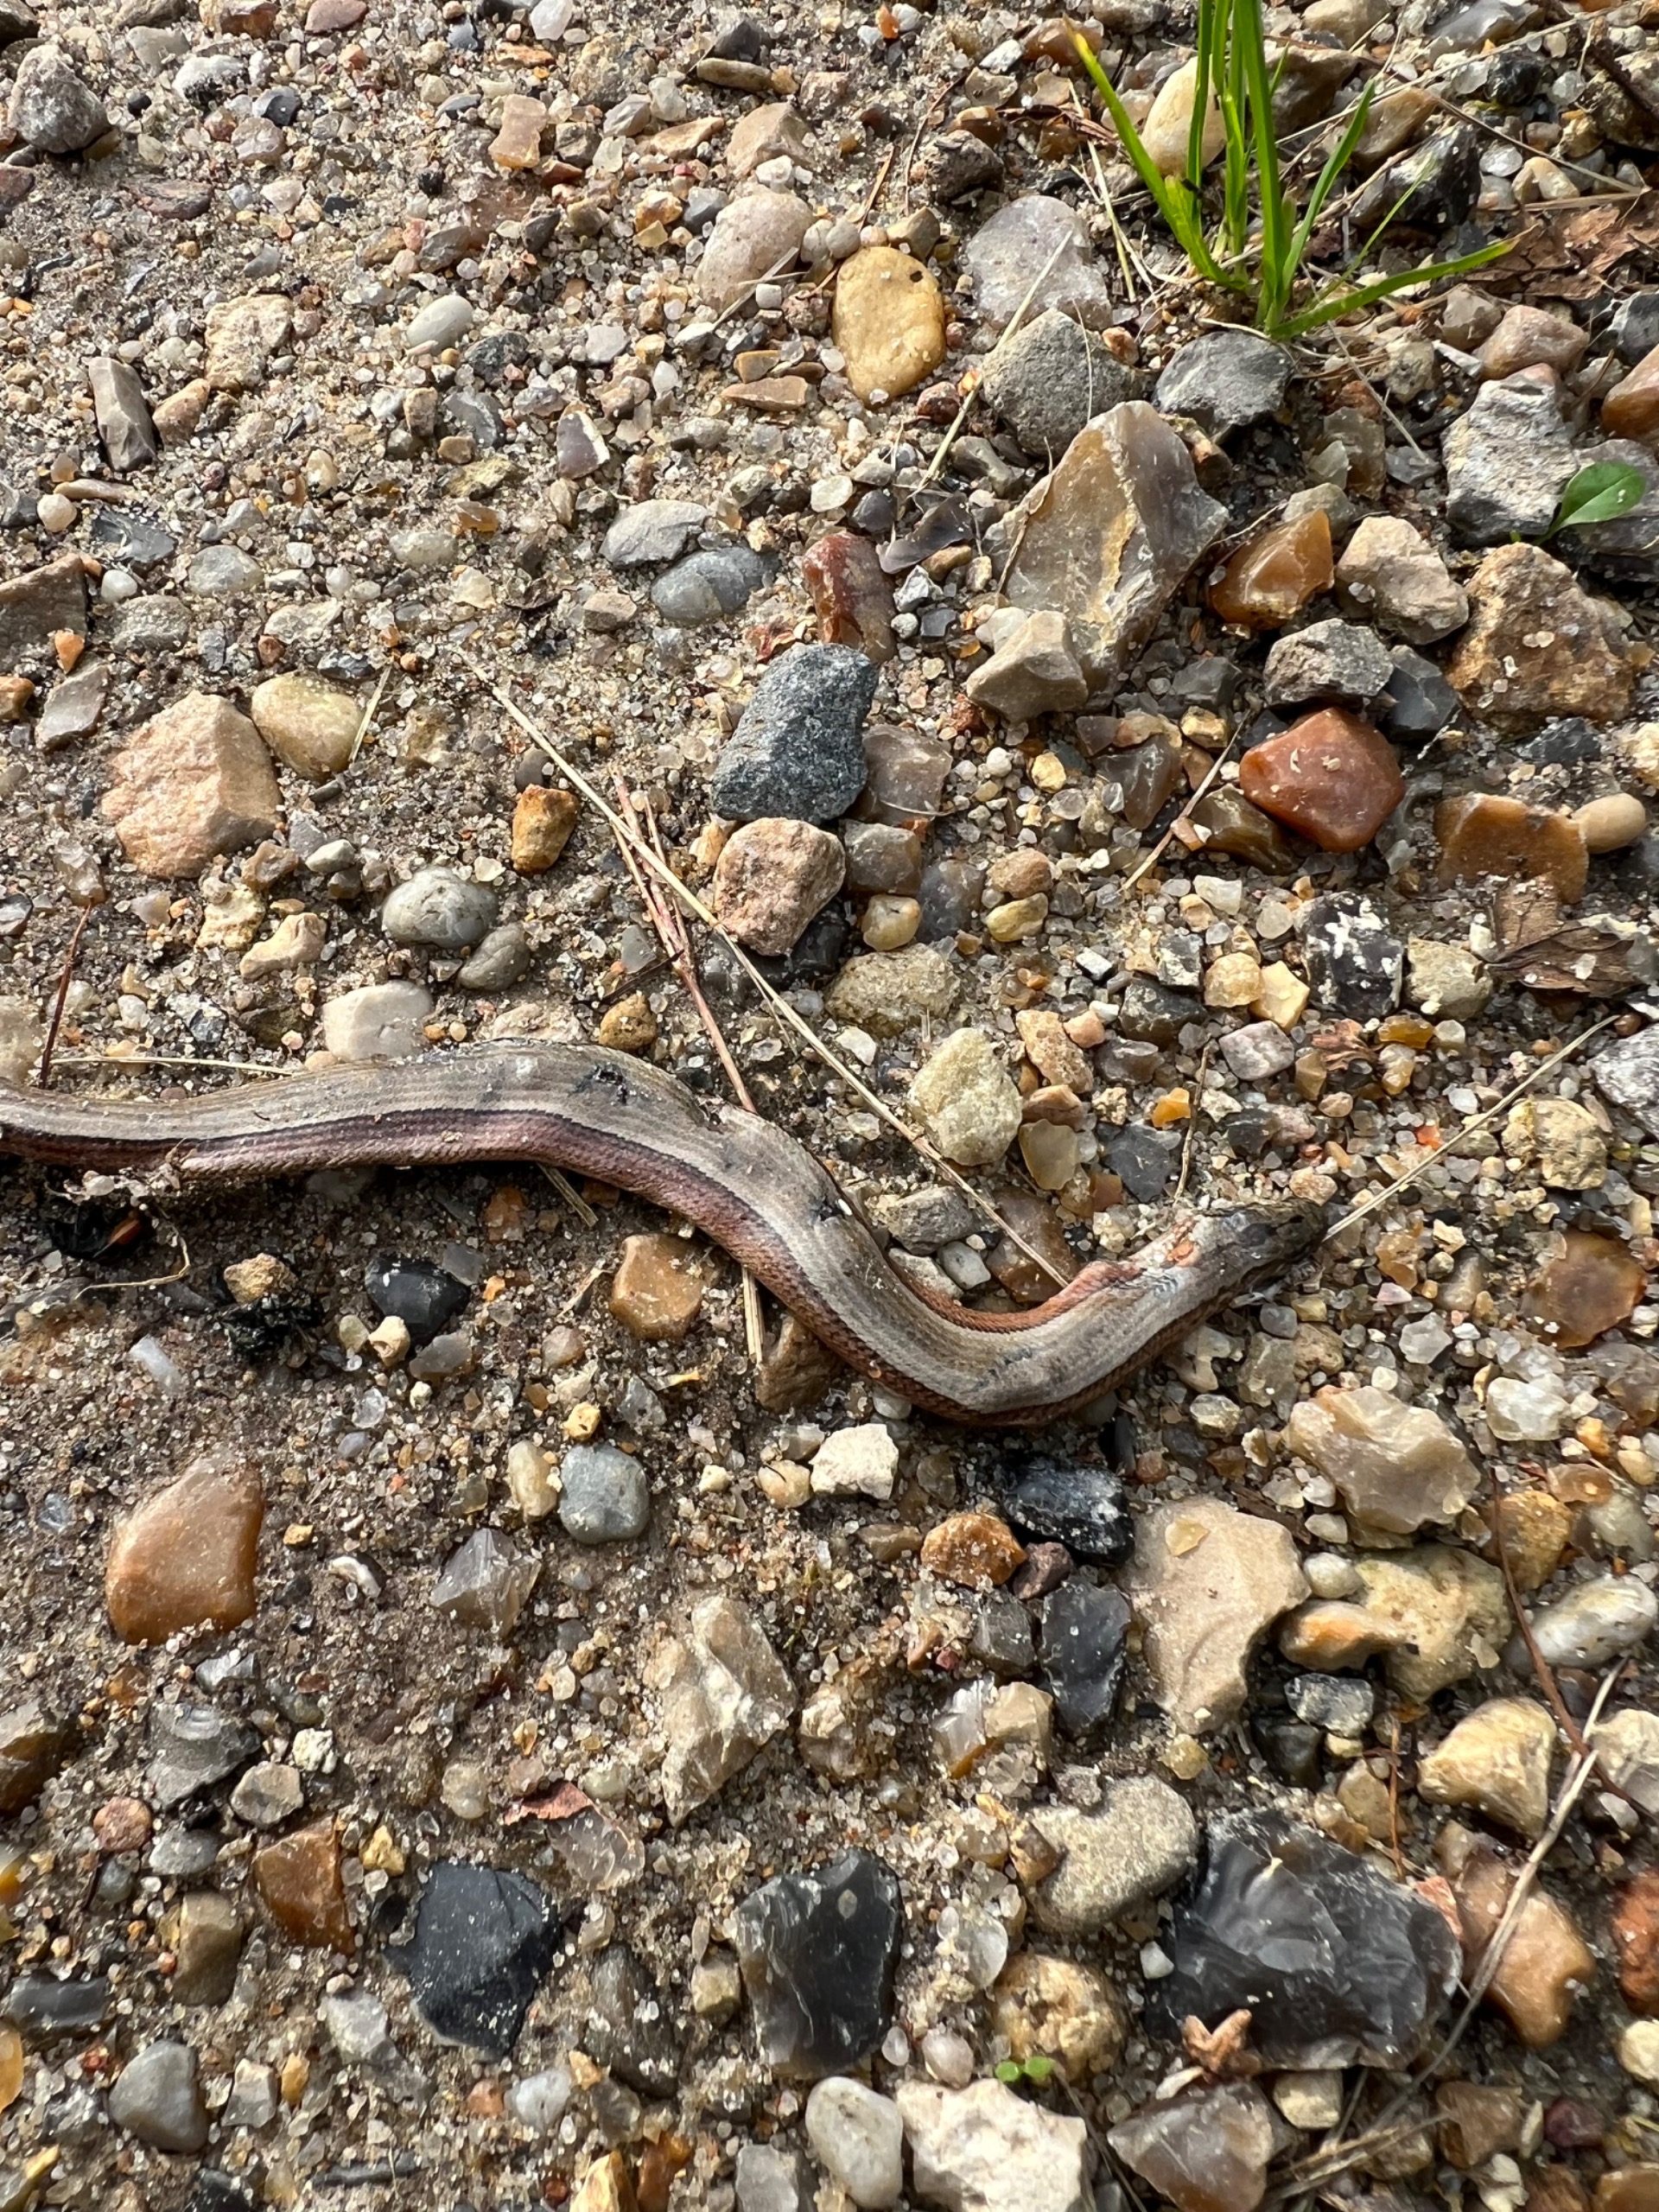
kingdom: Animalia
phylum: Chordata
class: Squamata
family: Anguidae
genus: Anguis
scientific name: Anguis fragilis
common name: Stålorm
